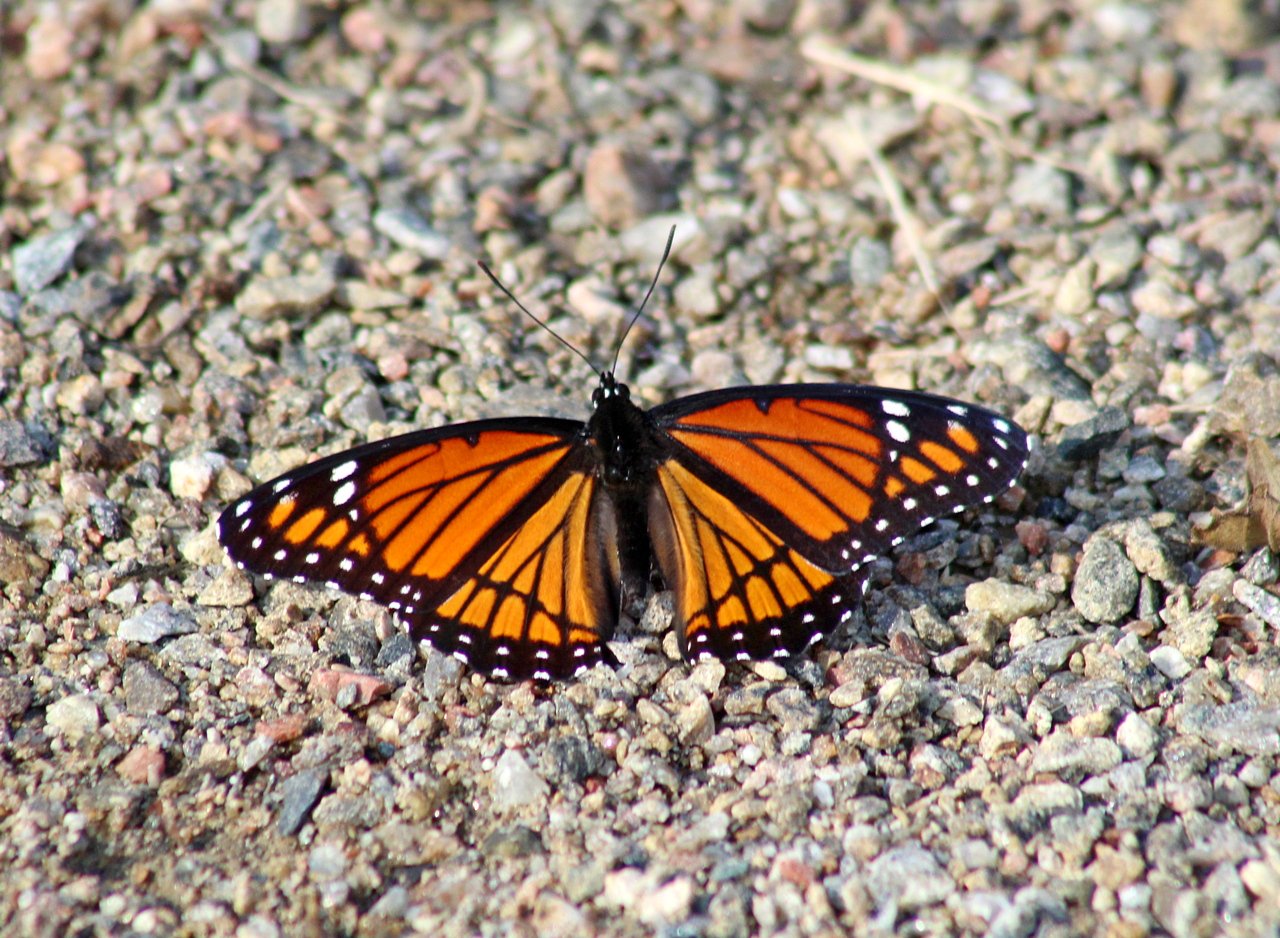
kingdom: Animalia
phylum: Arthropoda
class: Insecta
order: Lepidoptera
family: Nymphalidae
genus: Limenitis
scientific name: Limenitis archippus
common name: Viceroy
